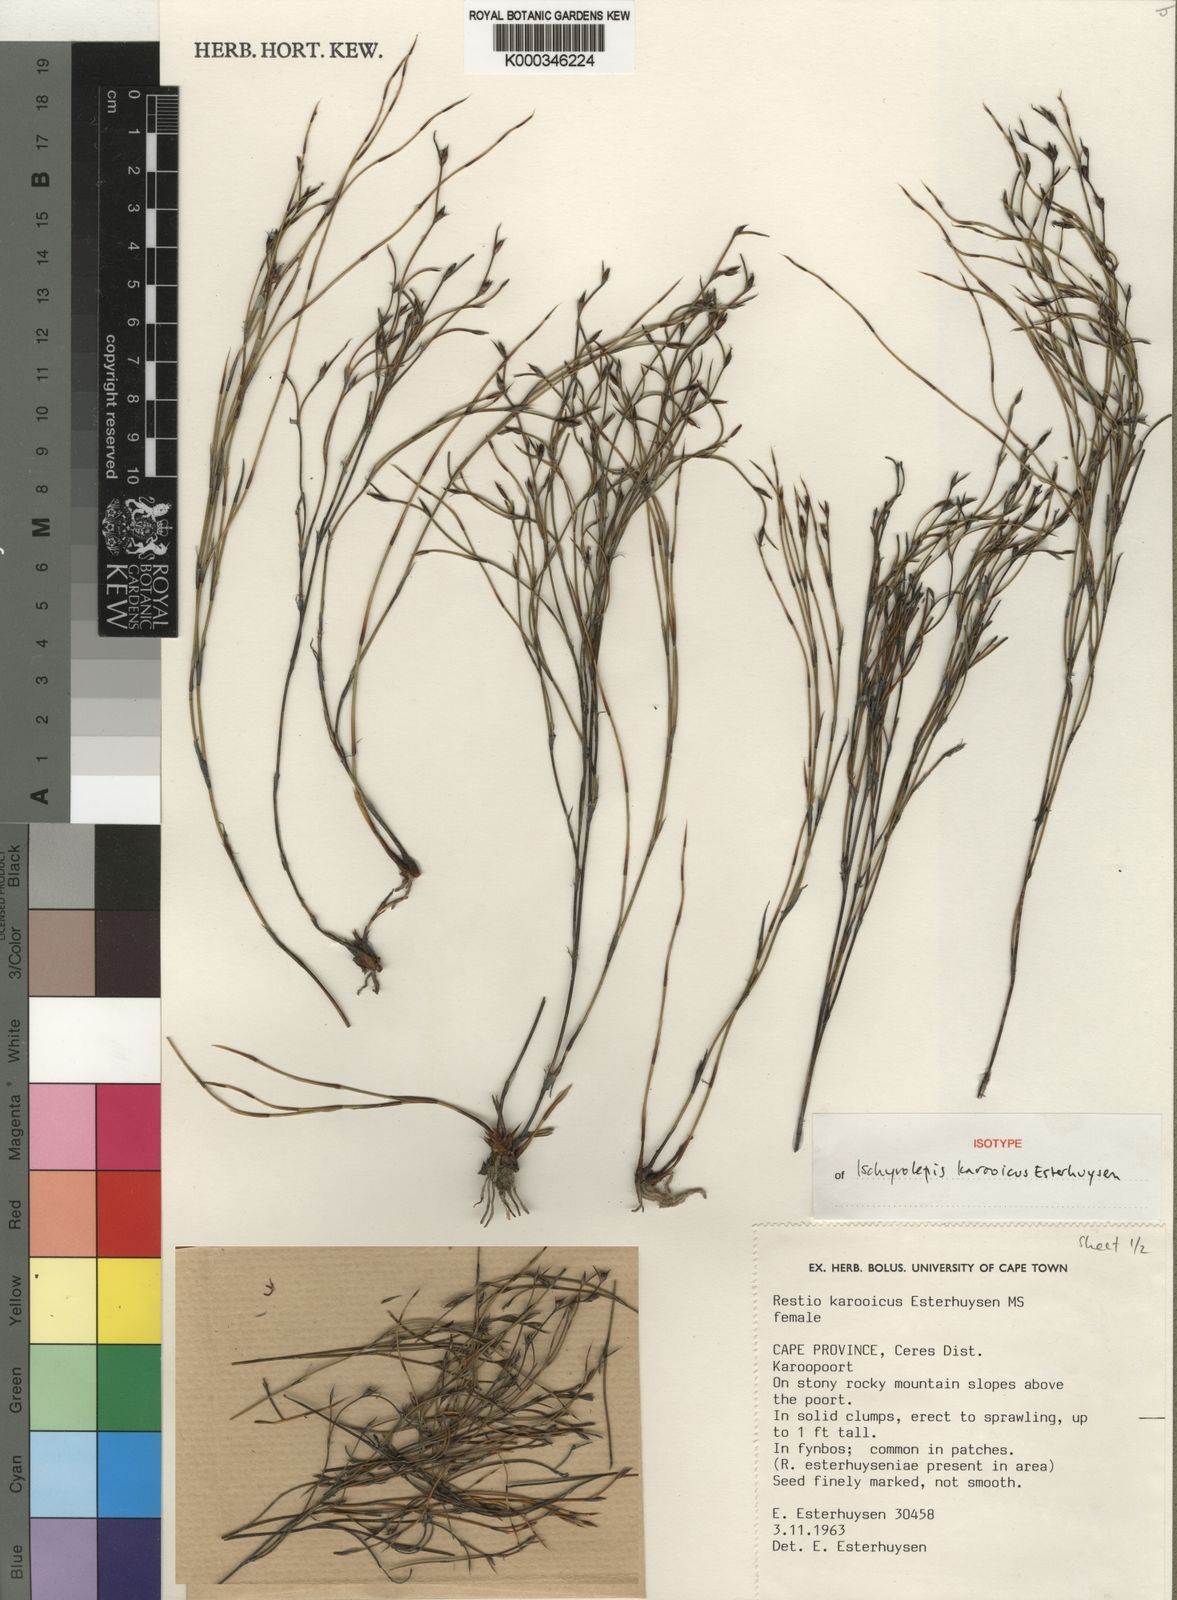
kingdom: Plantae
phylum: Tracheophyta
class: Liliopsida
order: Poales
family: Restionaceae
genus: Restio
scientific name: Restio karooicus
